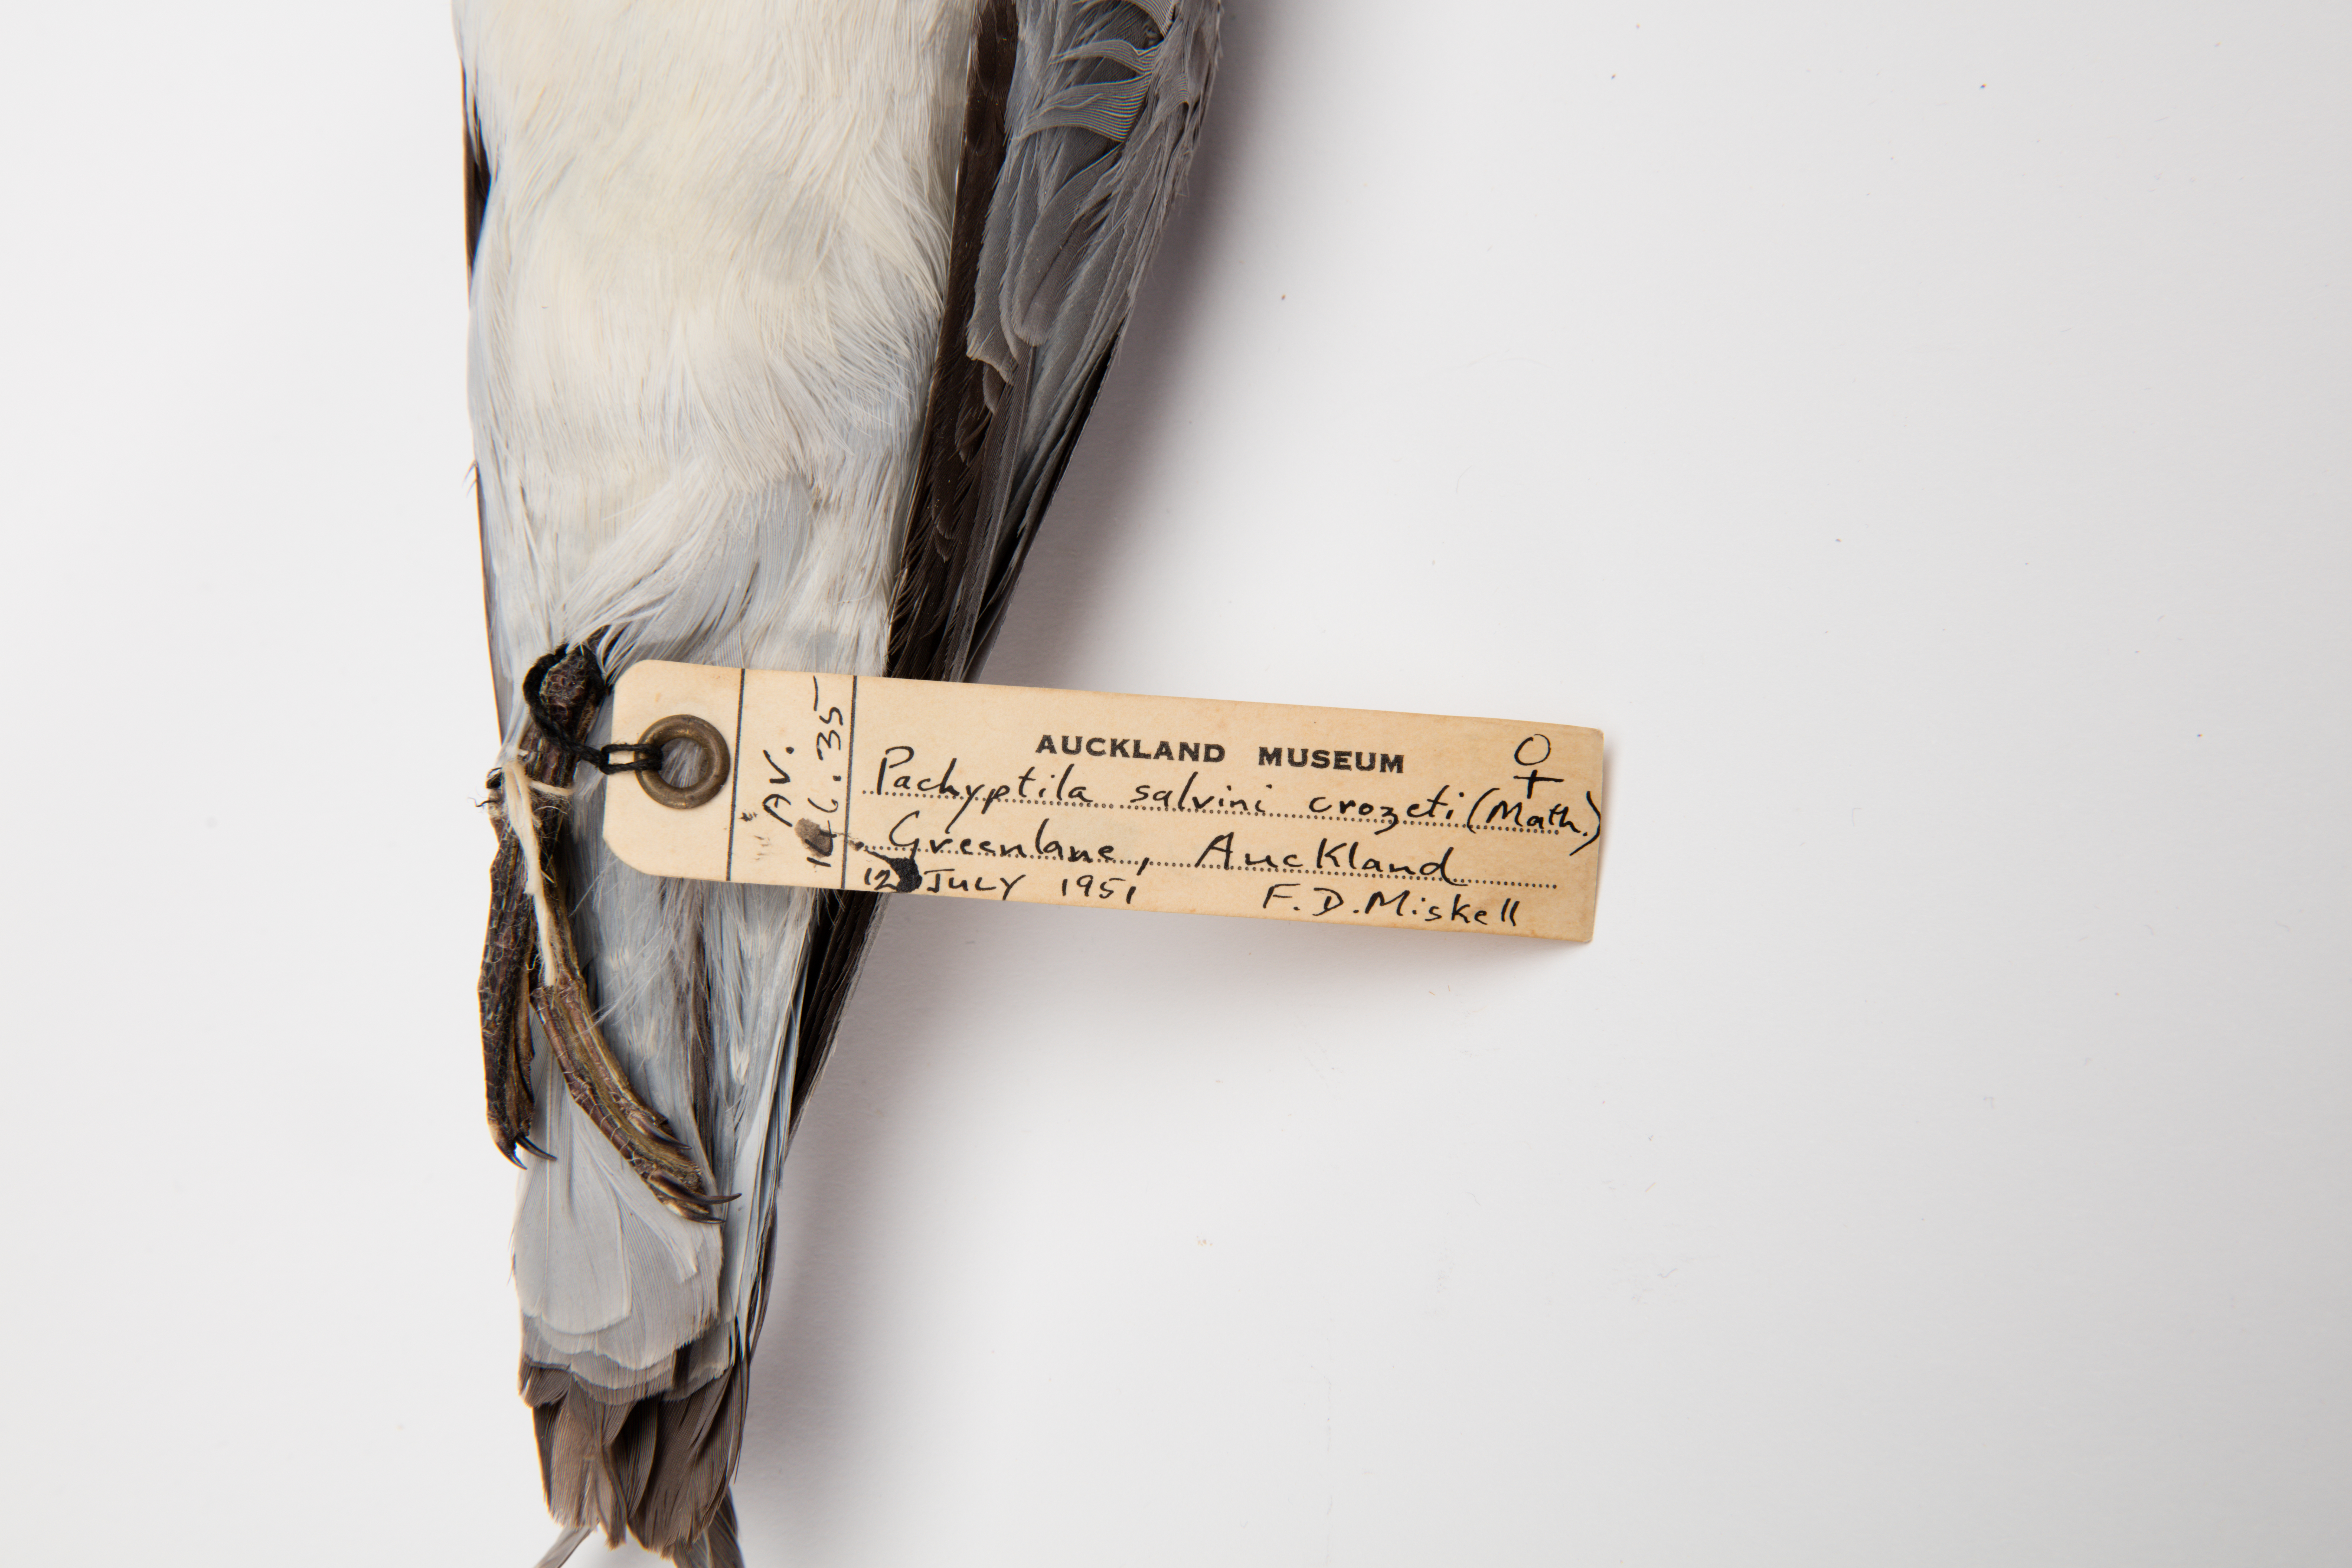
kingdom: Animalia
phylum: Chordata
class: Aves
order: Procellariiformes
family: Procellariidae
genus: Pachyptila
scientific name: Pachyptila salvini
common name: Salvin's prion
